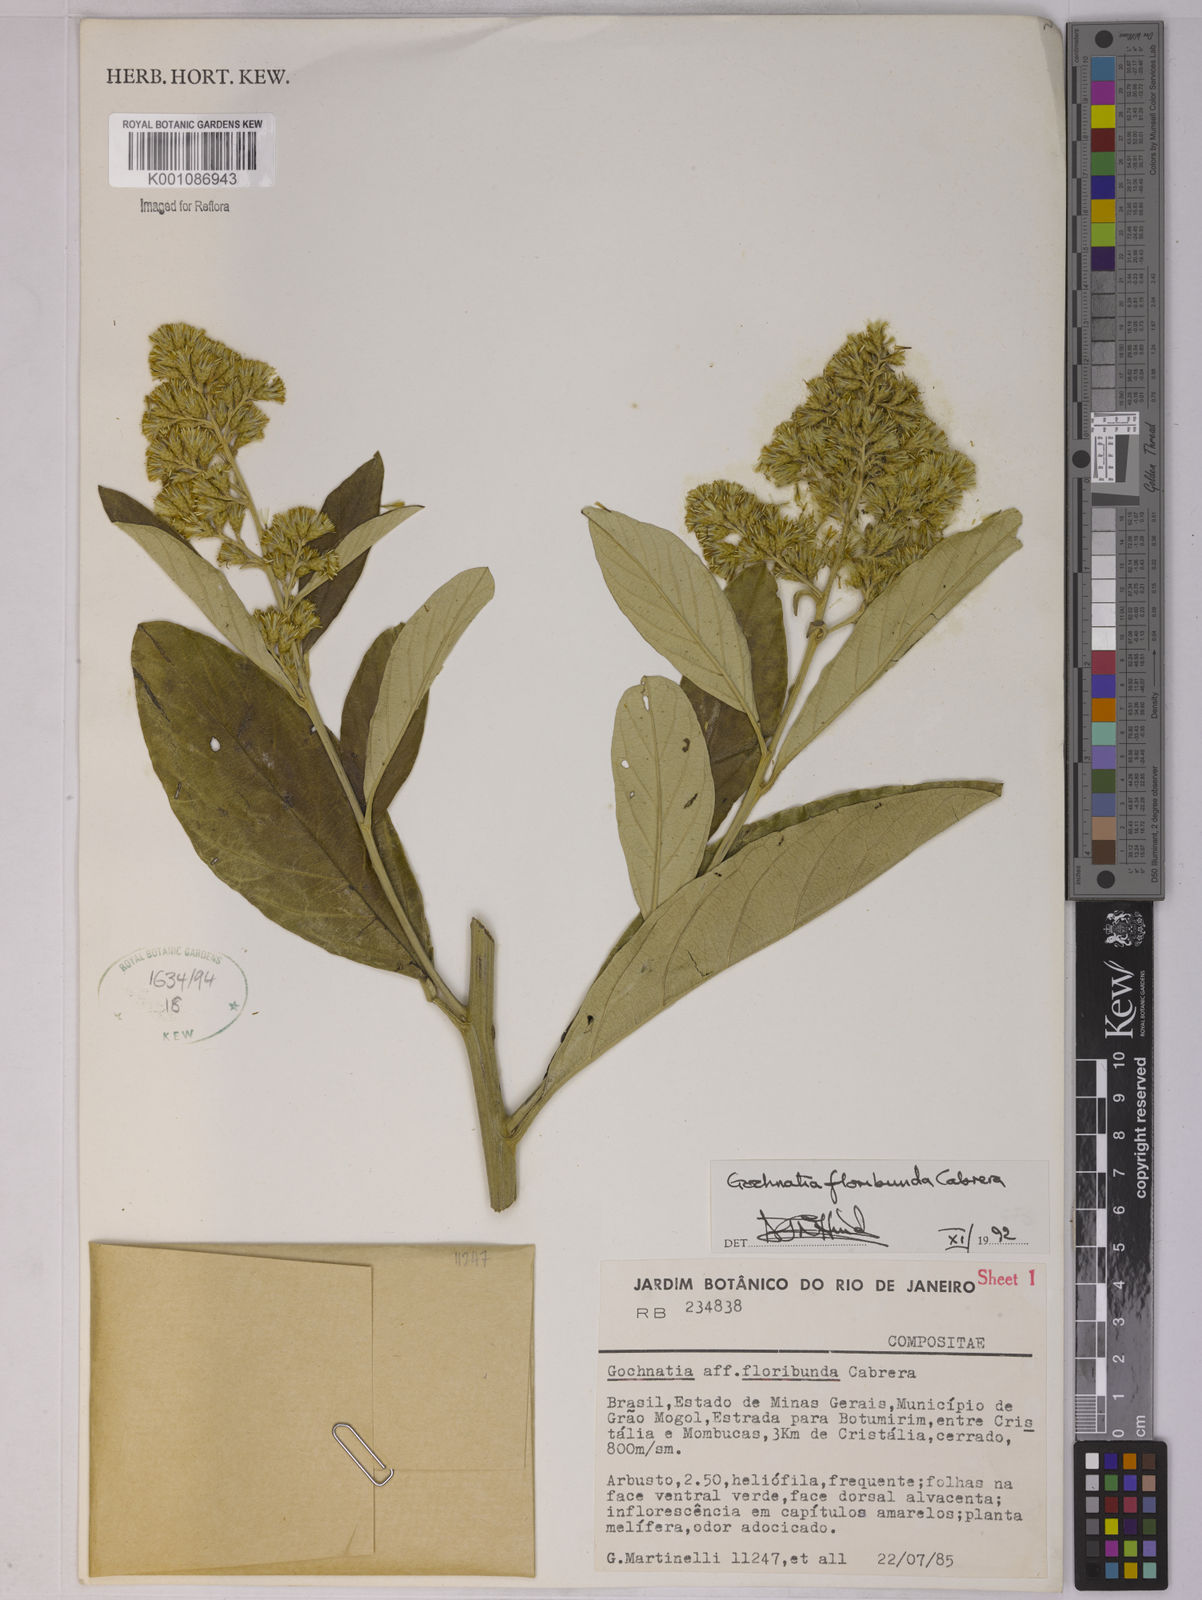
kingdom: Plantae
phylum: Tracheophyta
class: Magnoliopsida
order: Asterales
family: Asteraceae
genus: Moquiniastrum
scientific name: Moquiniastrum floribundum
